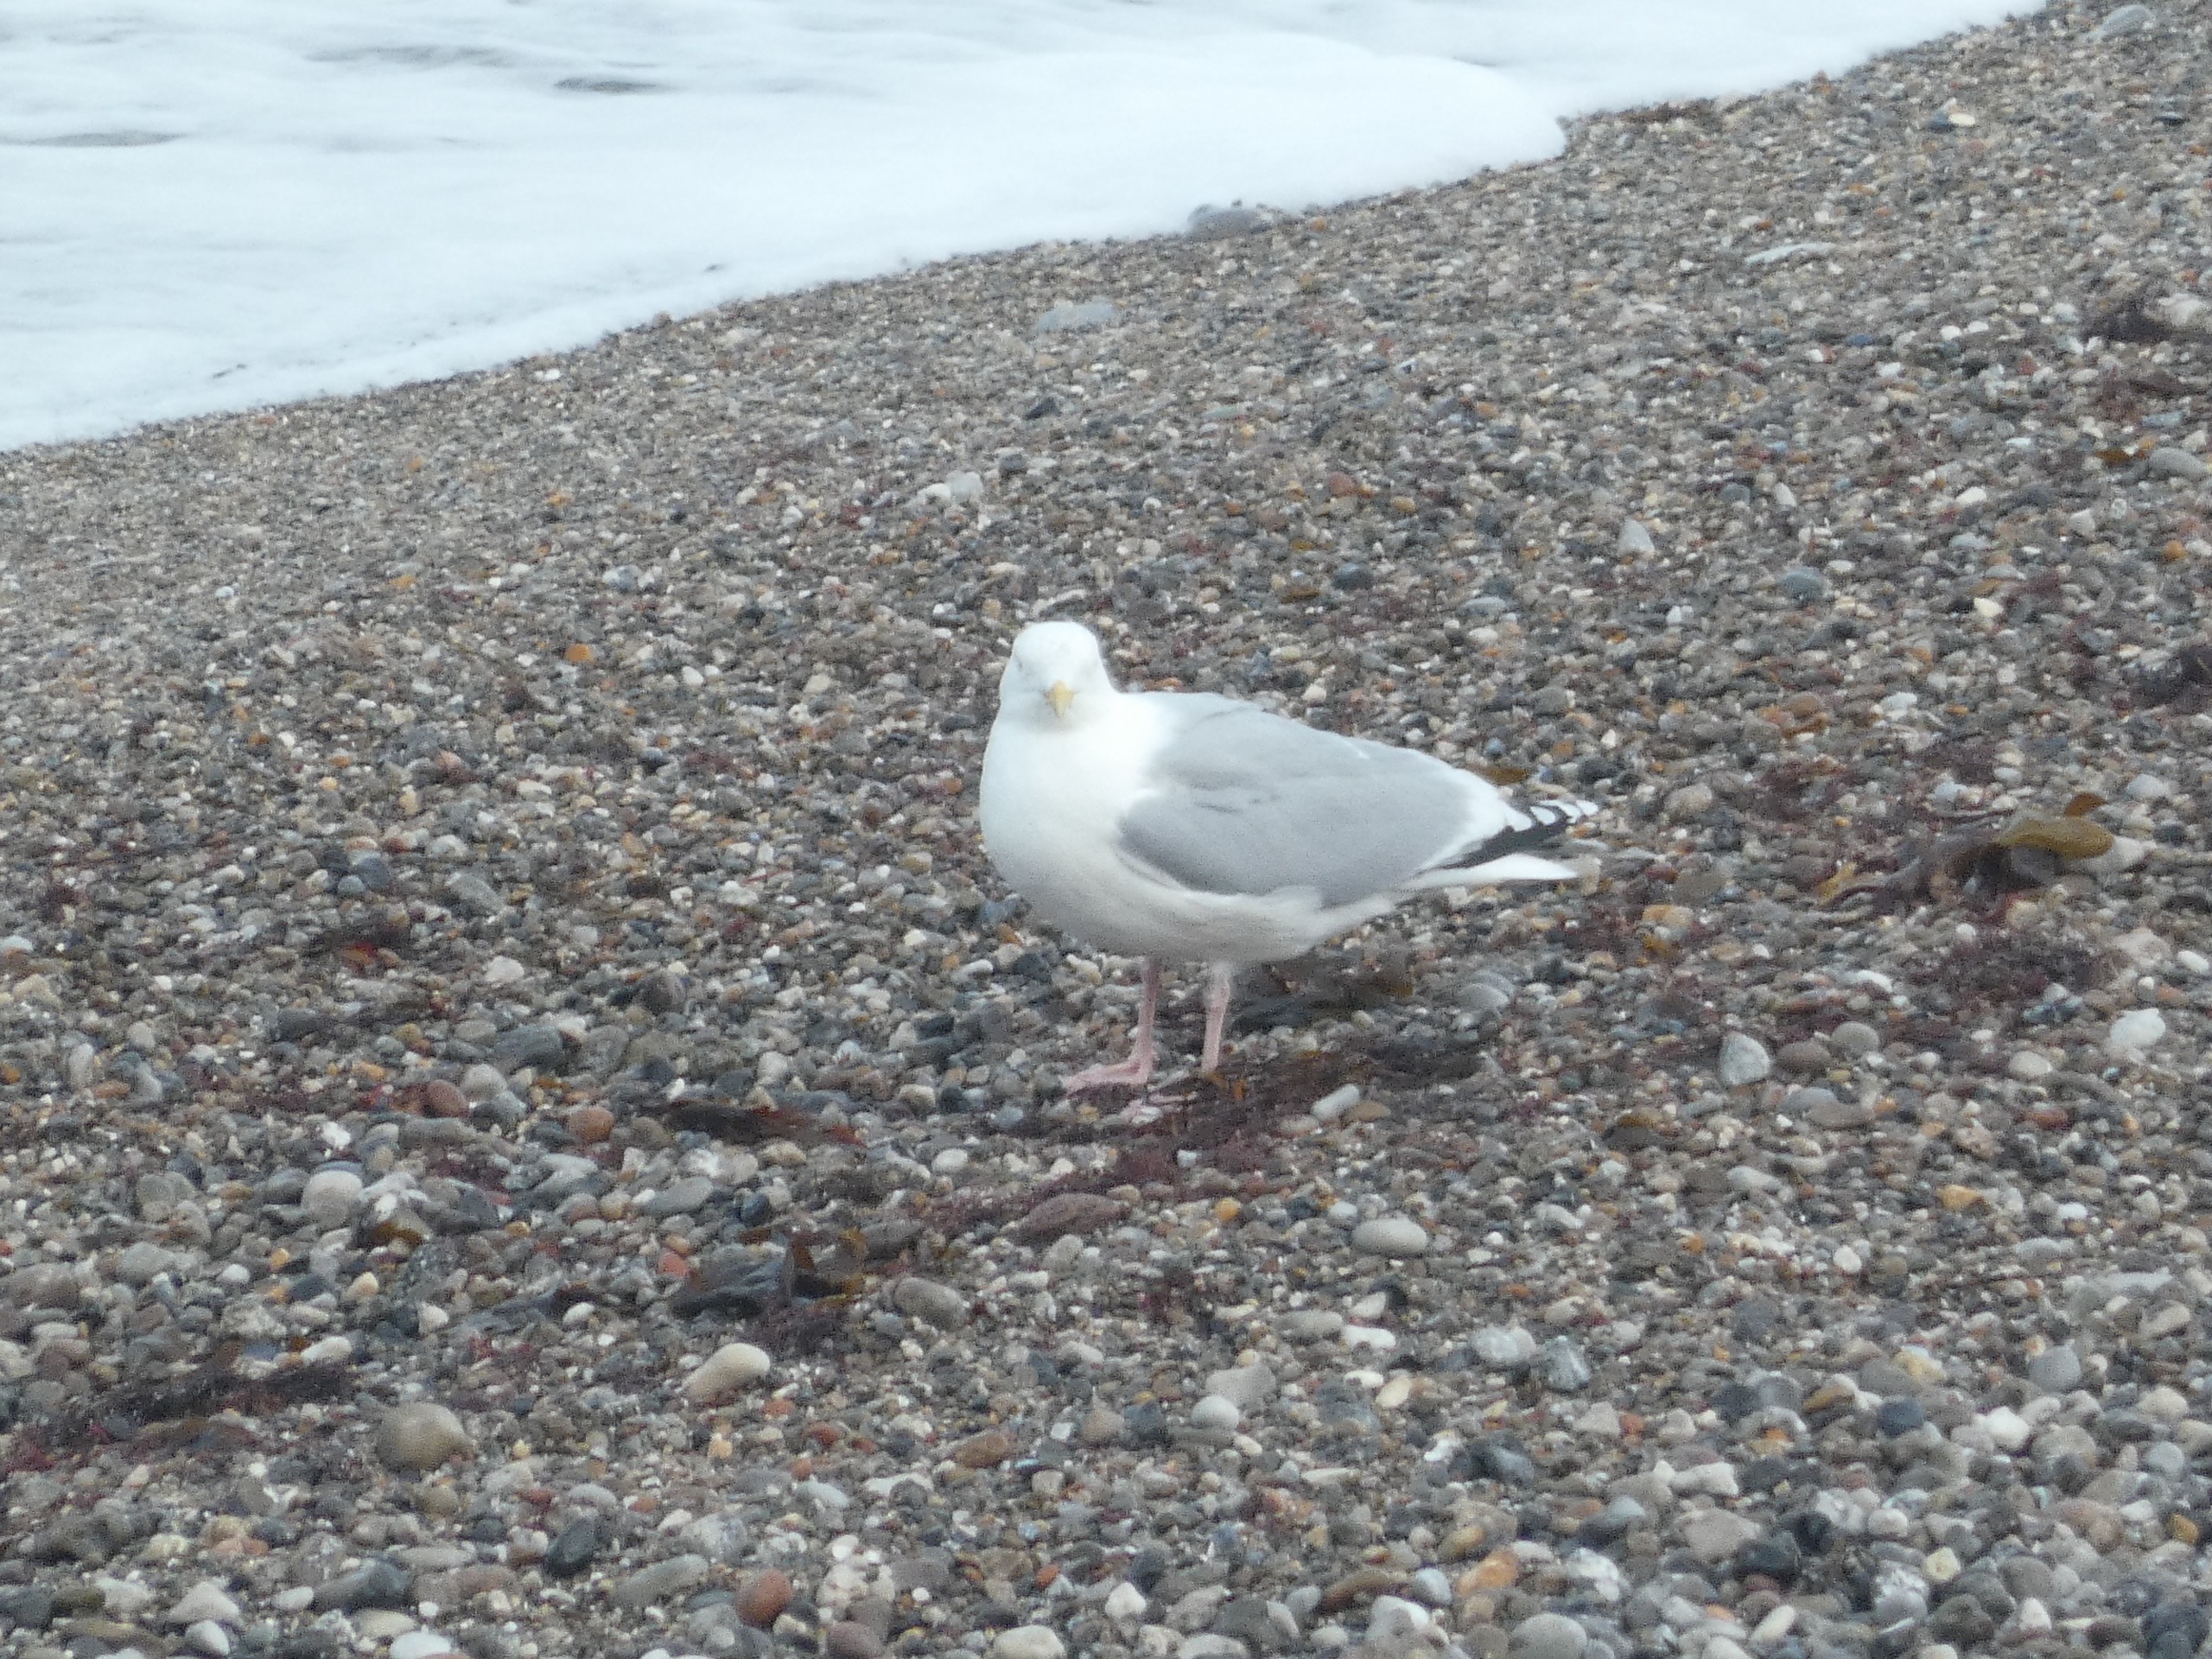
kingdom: Animalia
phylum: Chordata
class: Aves
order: Charadriiformes
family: Laridae
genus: Larus
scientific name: Larus argentatus
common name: Sølvmåge
